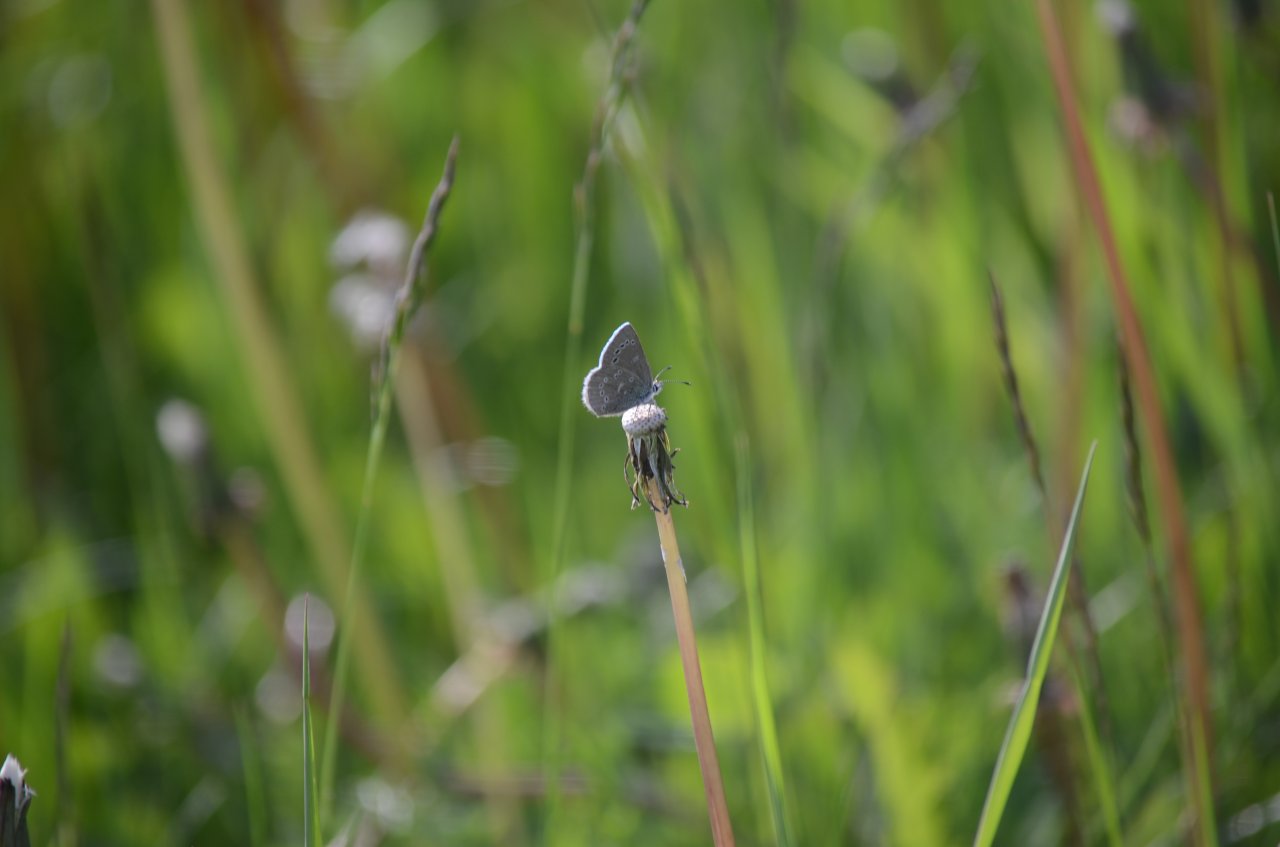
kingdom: Animalia
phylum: Arthropoda
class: Insecta
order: Lepidoptera
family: Lycaenidae
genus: Glaucopsyche
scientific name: Glaucopsyche lygdamus
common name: Silvery Blue
